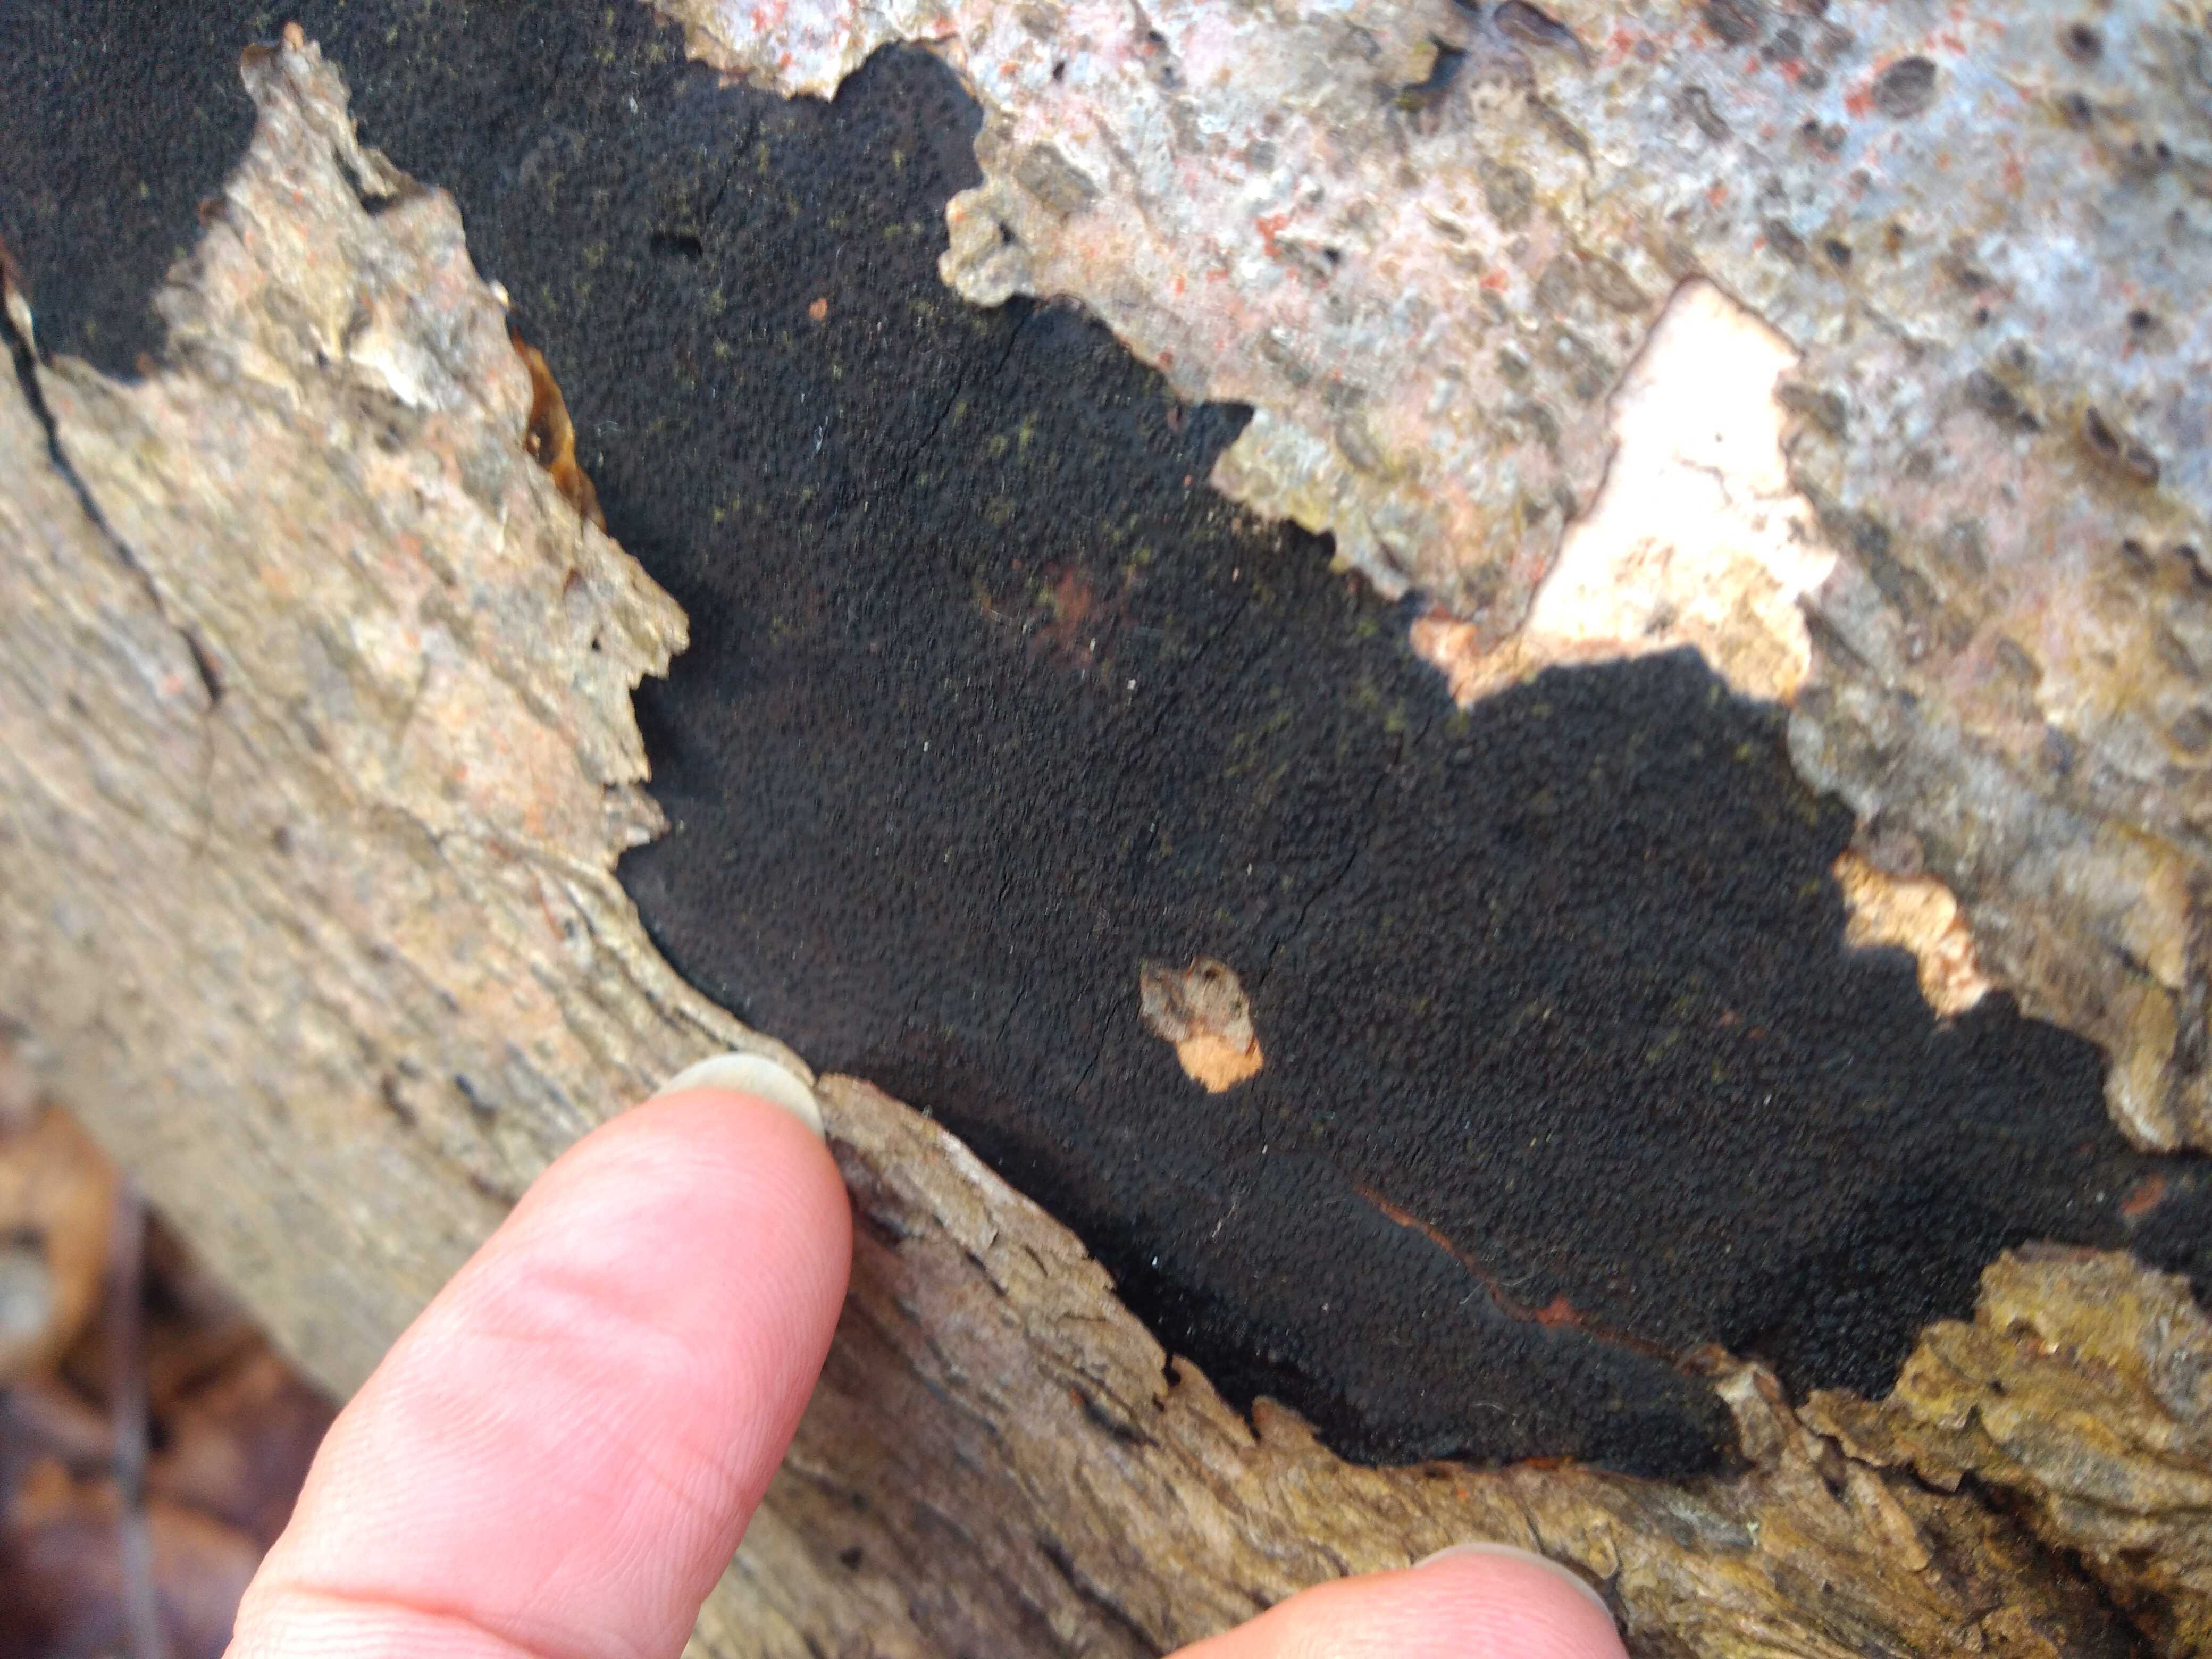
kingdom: Fungi
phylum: Ascomycota
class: Sordariomycetes
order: Xylariales
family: Diatrypaceae
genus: Eutypa
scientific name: Eutypa spinosa
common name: grov kulskorpe
